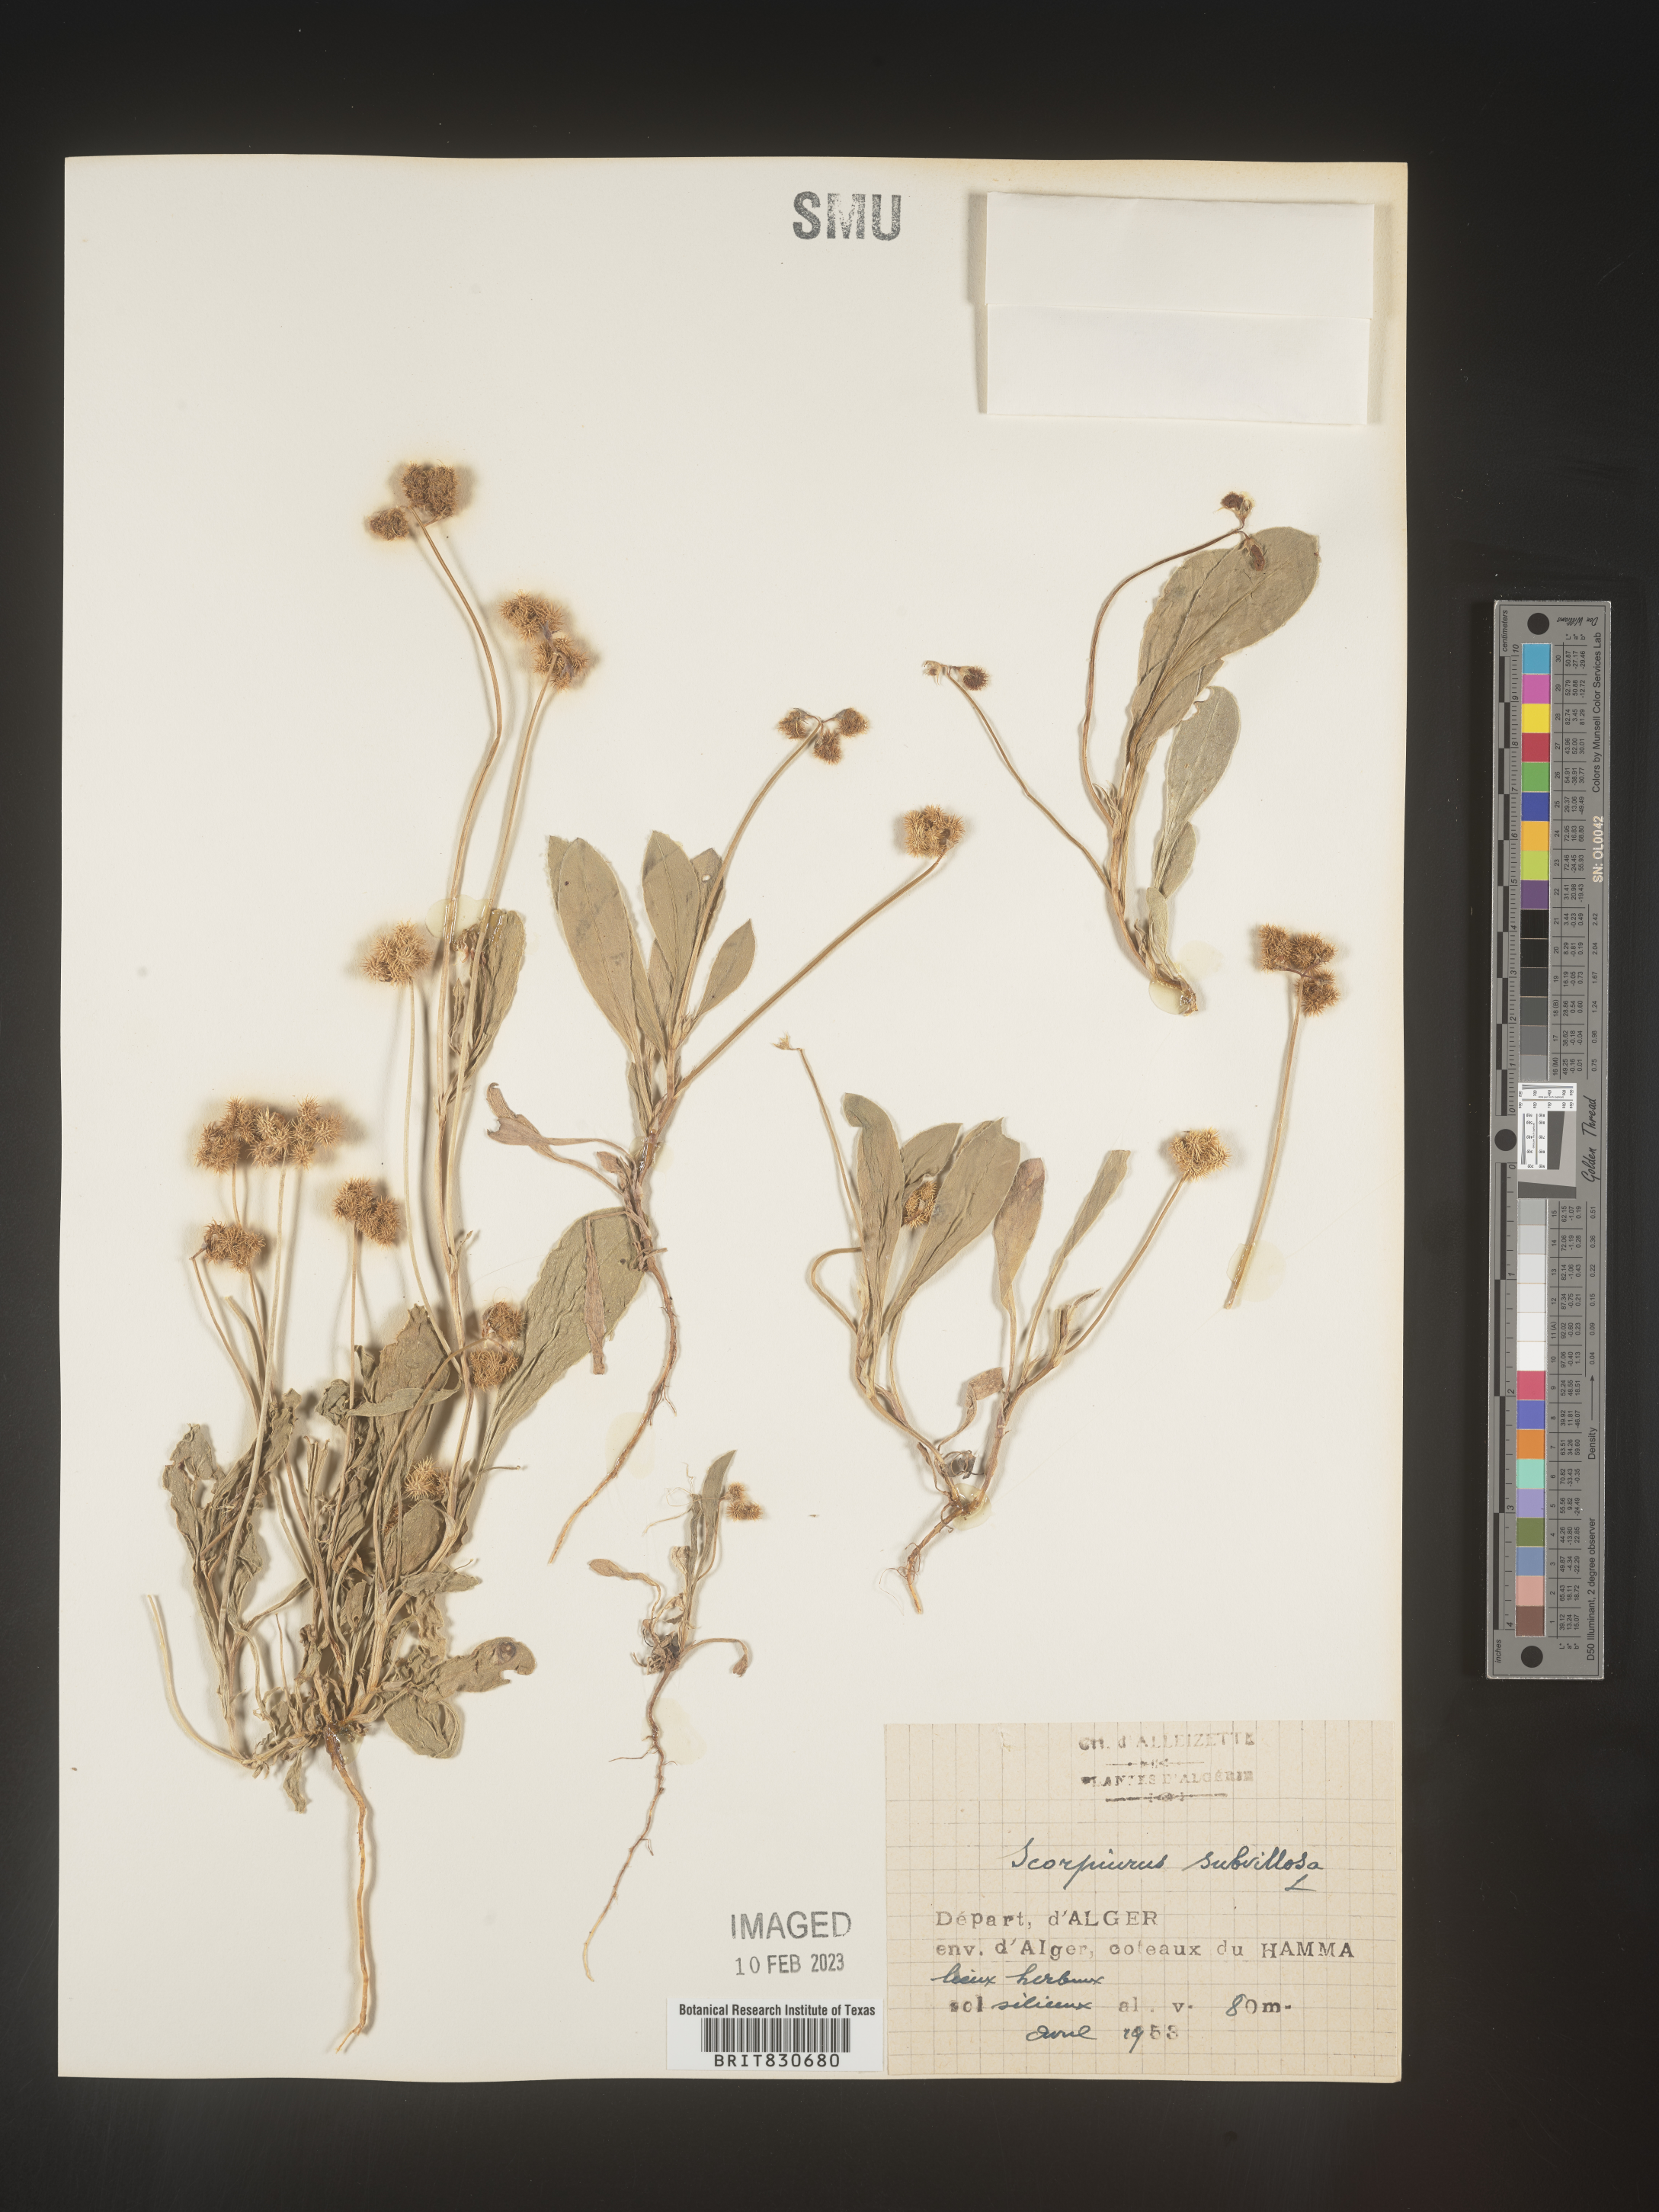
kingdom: Plantae
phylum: Tracheophyta
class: Magnoliopsida
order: Fabales
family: Fabaceae
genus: Scorpiurus
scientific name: Scorpiurus
